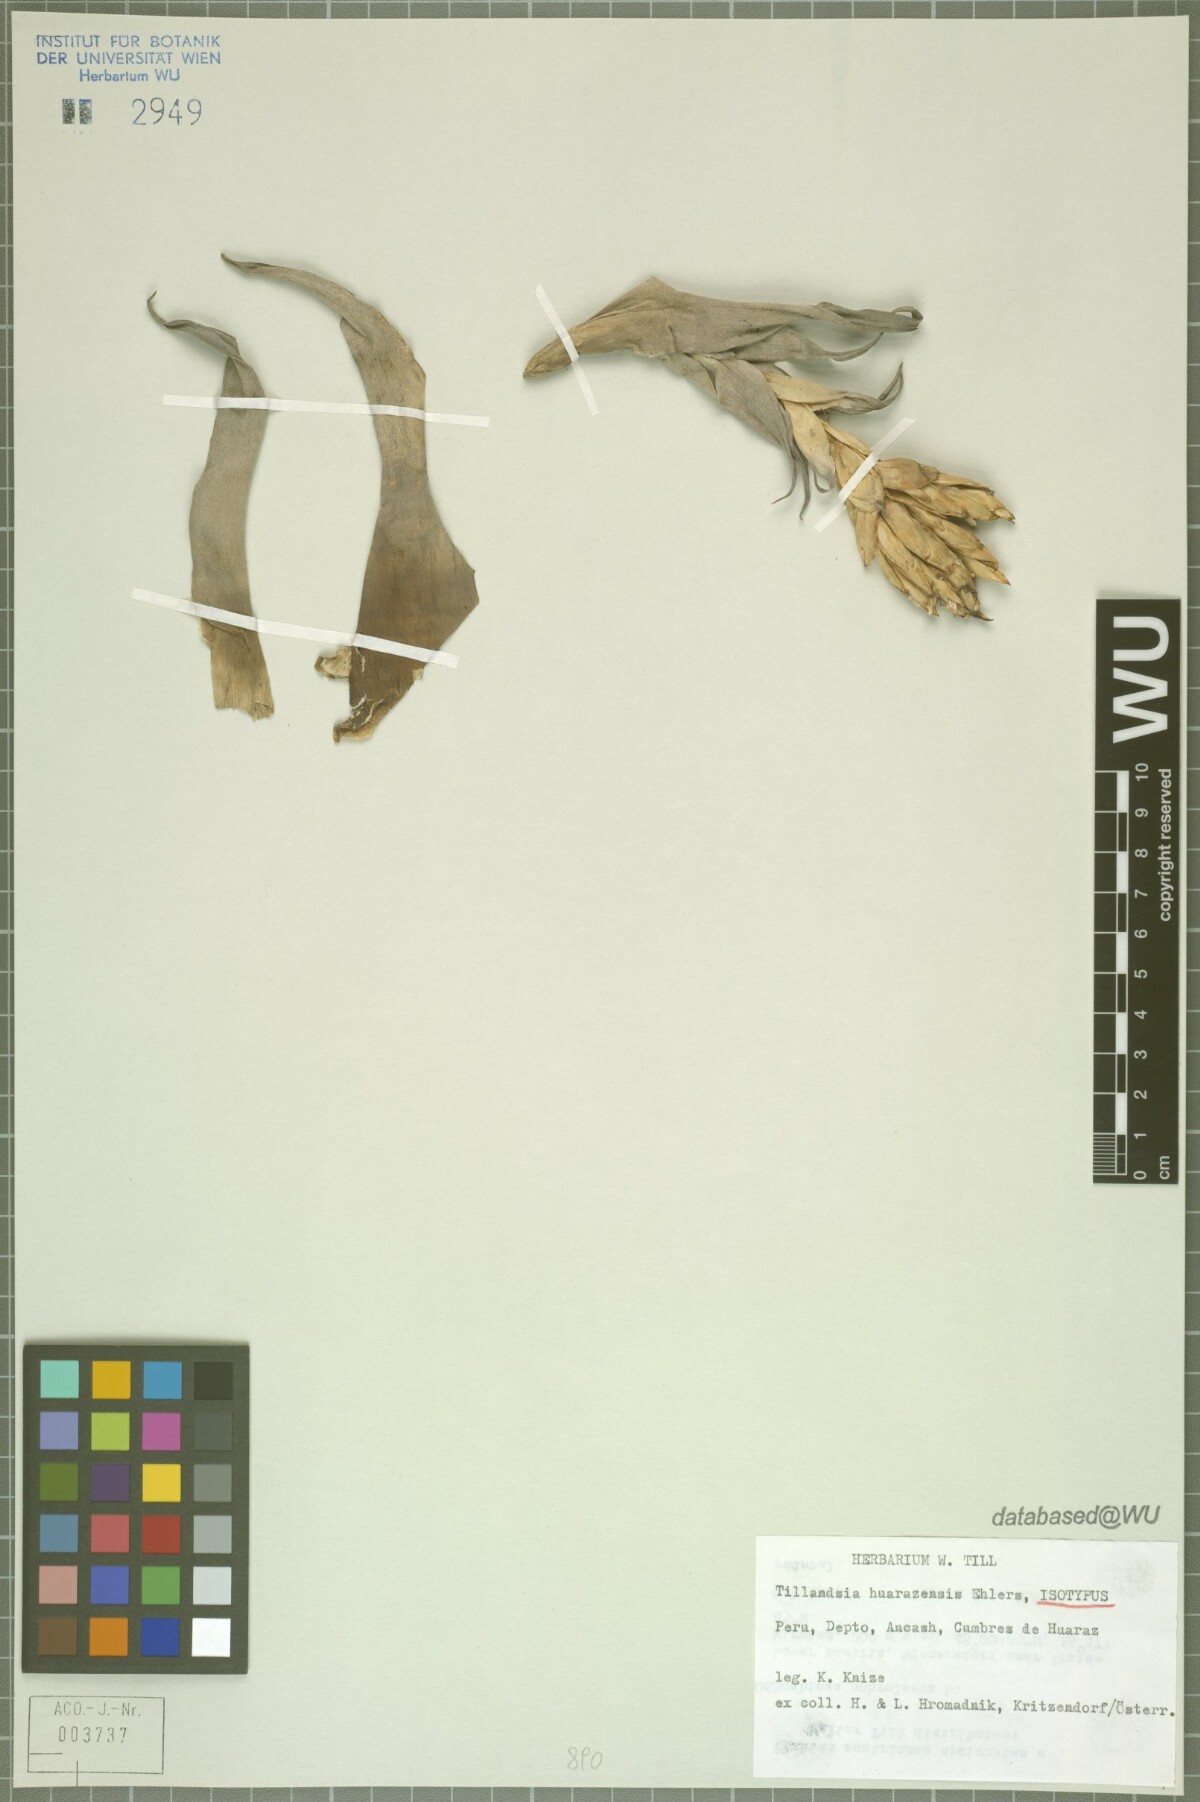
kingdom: Plantae
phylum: Tracheophyta
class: Liliopsida
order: Poales
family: Bromeliaceae
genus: Tillandsia
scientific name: Tillandsia huarazensis
